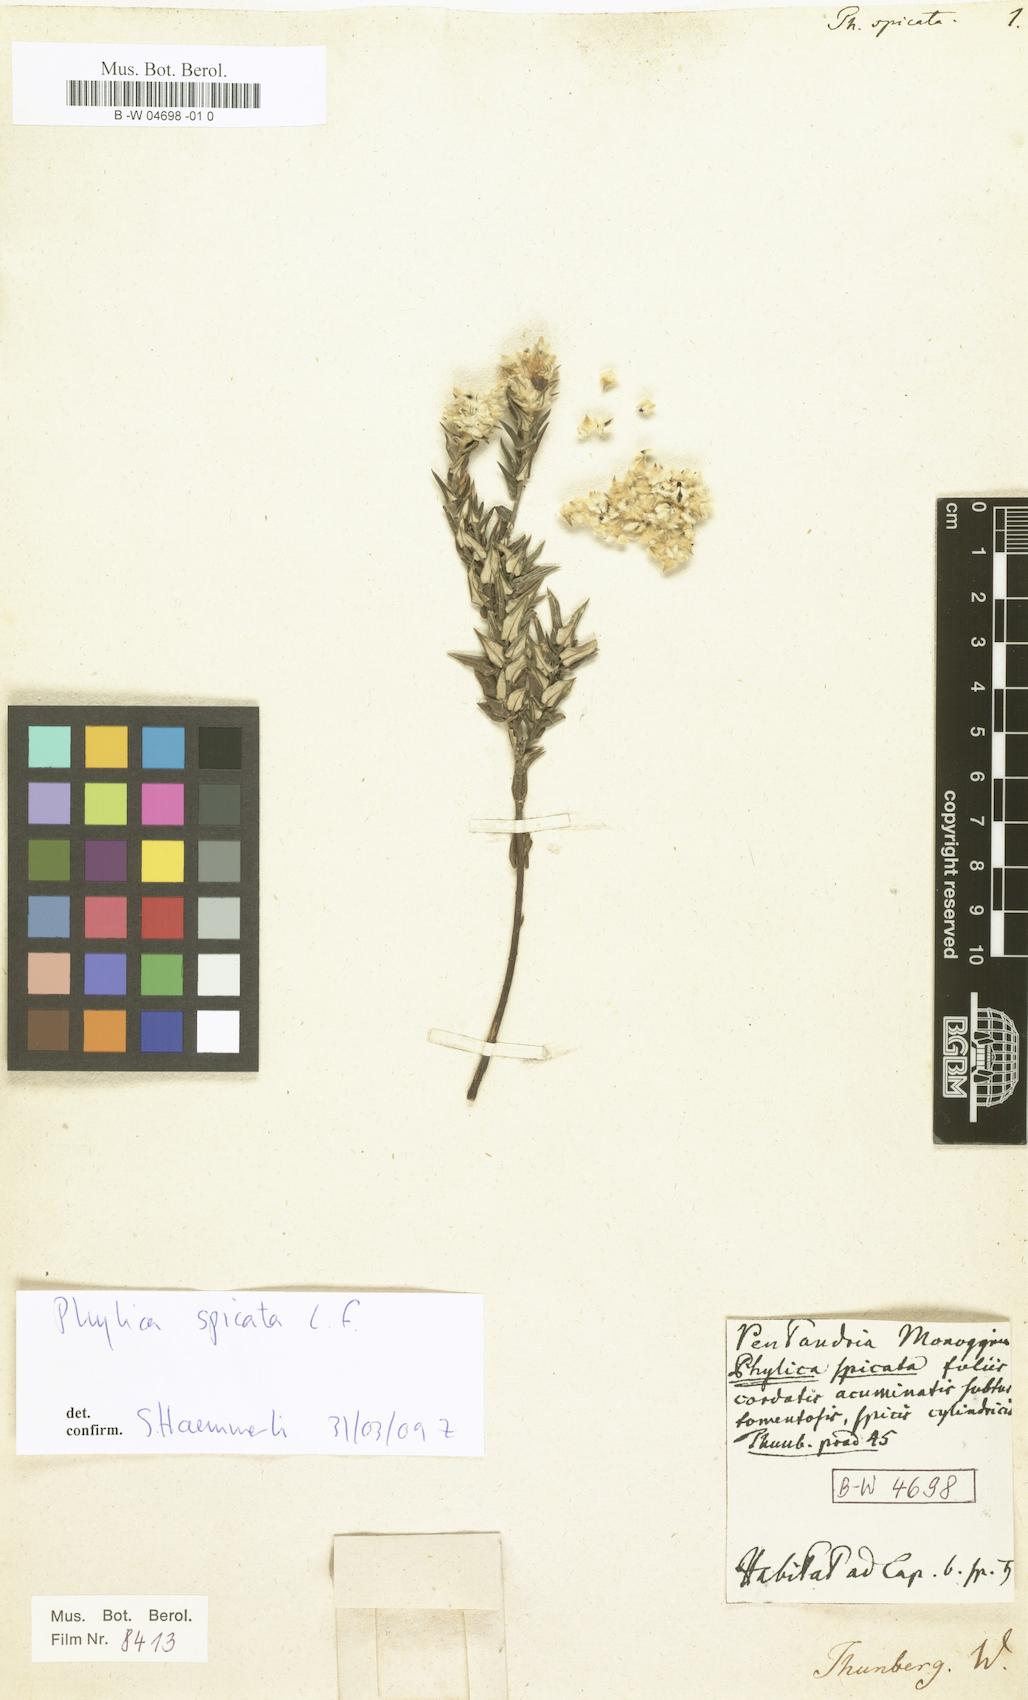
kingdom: Plantae
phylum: Tracheophyta
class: Magnoliopsida
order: Rosales
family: Rhamnaceae
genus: Phylica
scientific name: Phylica spicata
